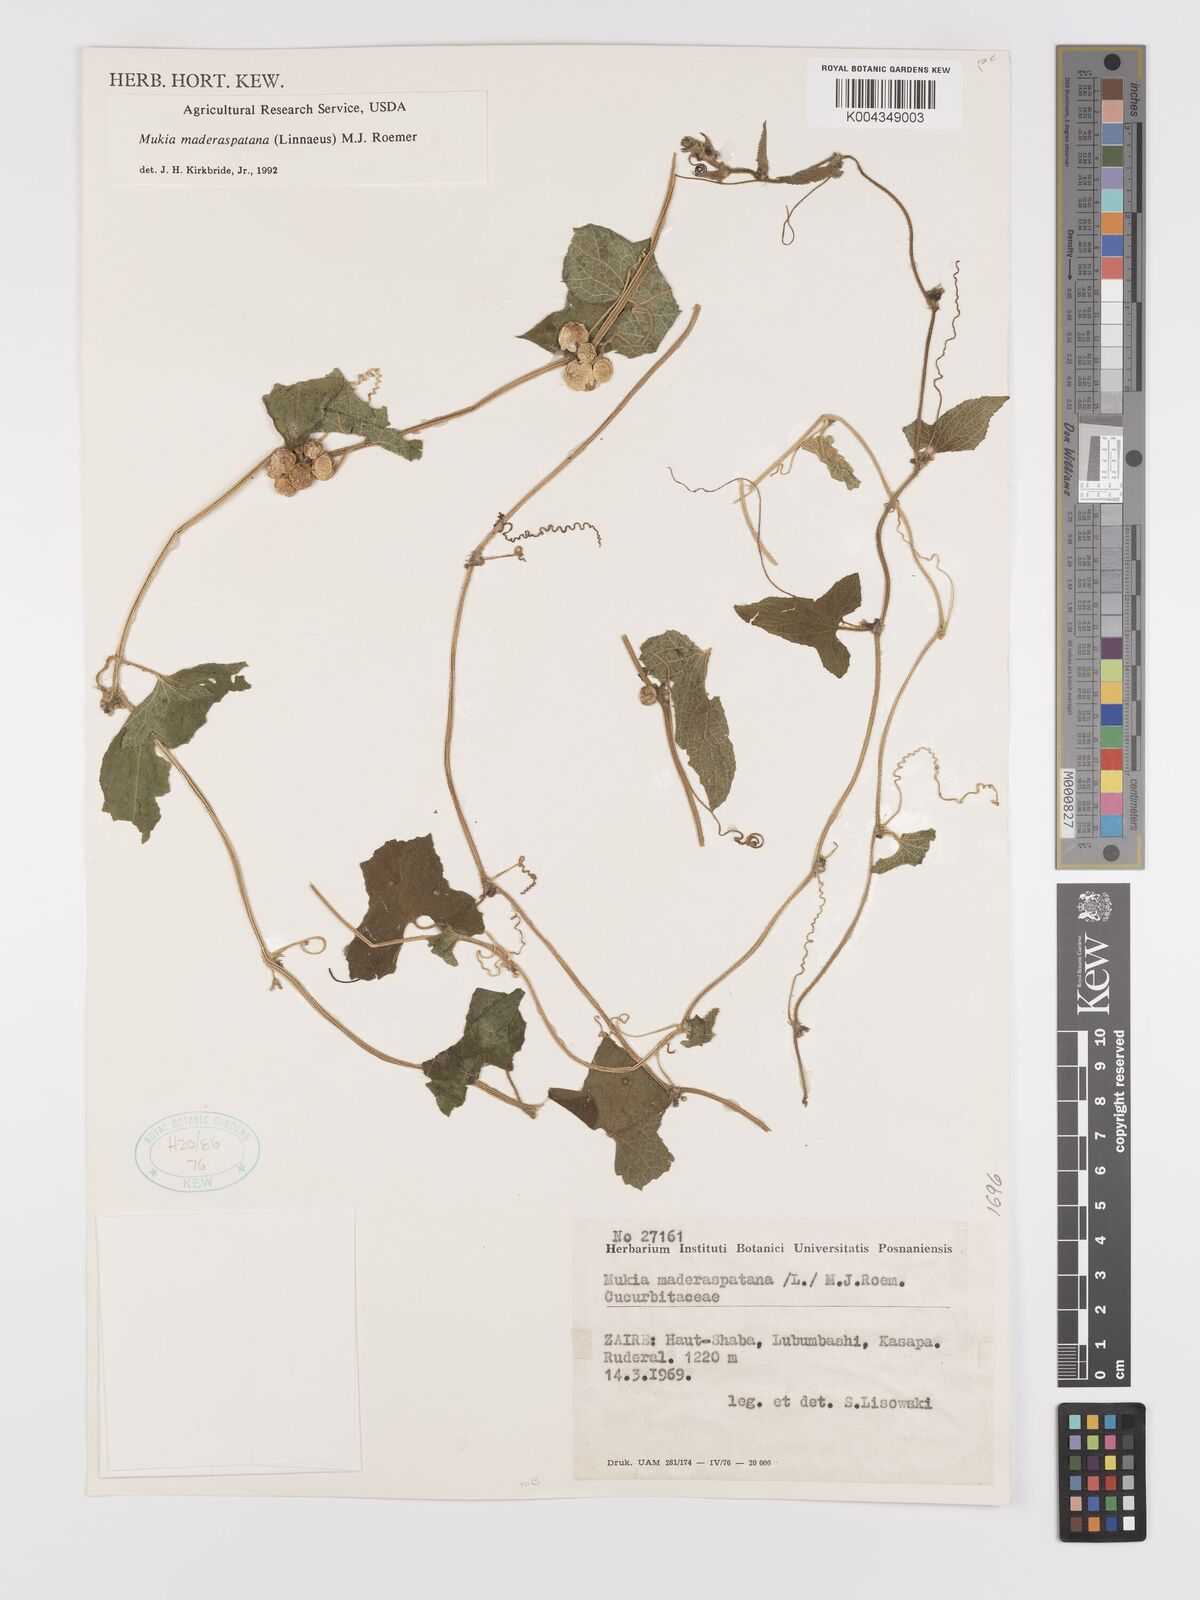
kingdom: Plantae
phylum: Tracheophyta
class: Magnoliopsida
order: Cucurbitales
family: Cucurbitaceae
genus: Cucumis
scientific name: Cucumis maderaspatanus
